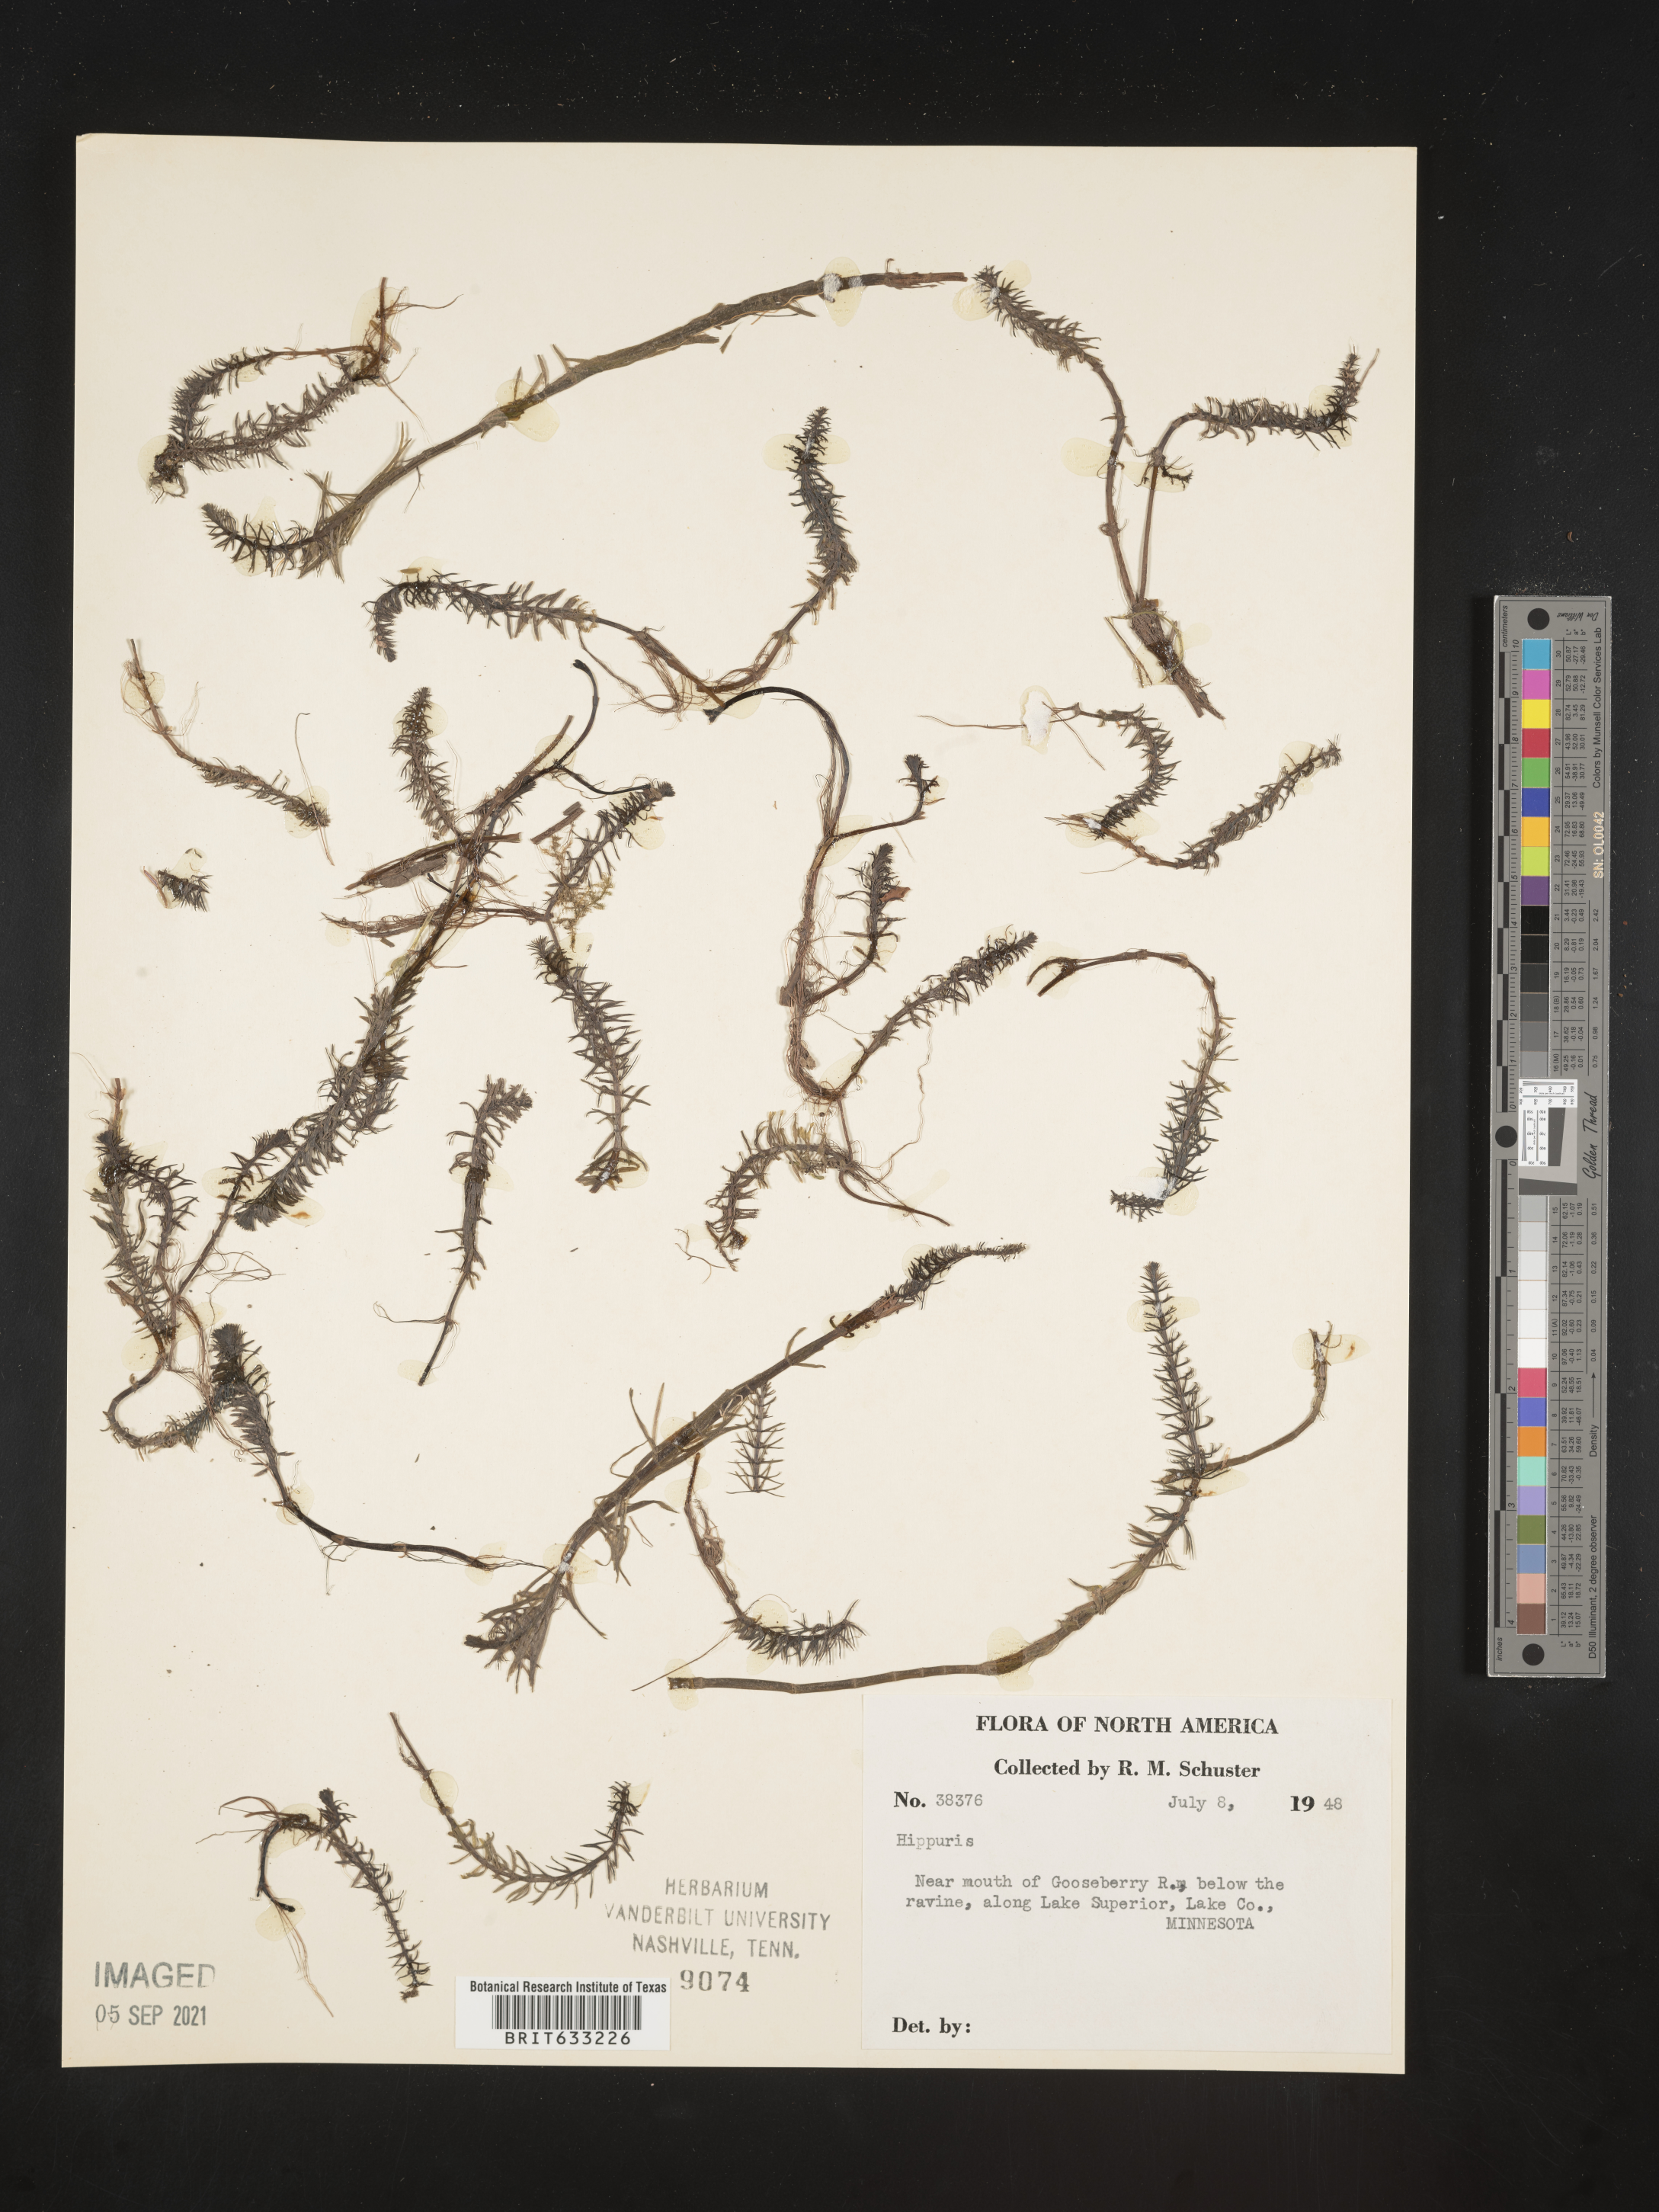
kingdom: Plantae
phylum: Tracheophyta
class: Magnoliopsida
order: Lamiales
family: Plantaginaceae
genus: Hippuris
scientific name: Hippuris
